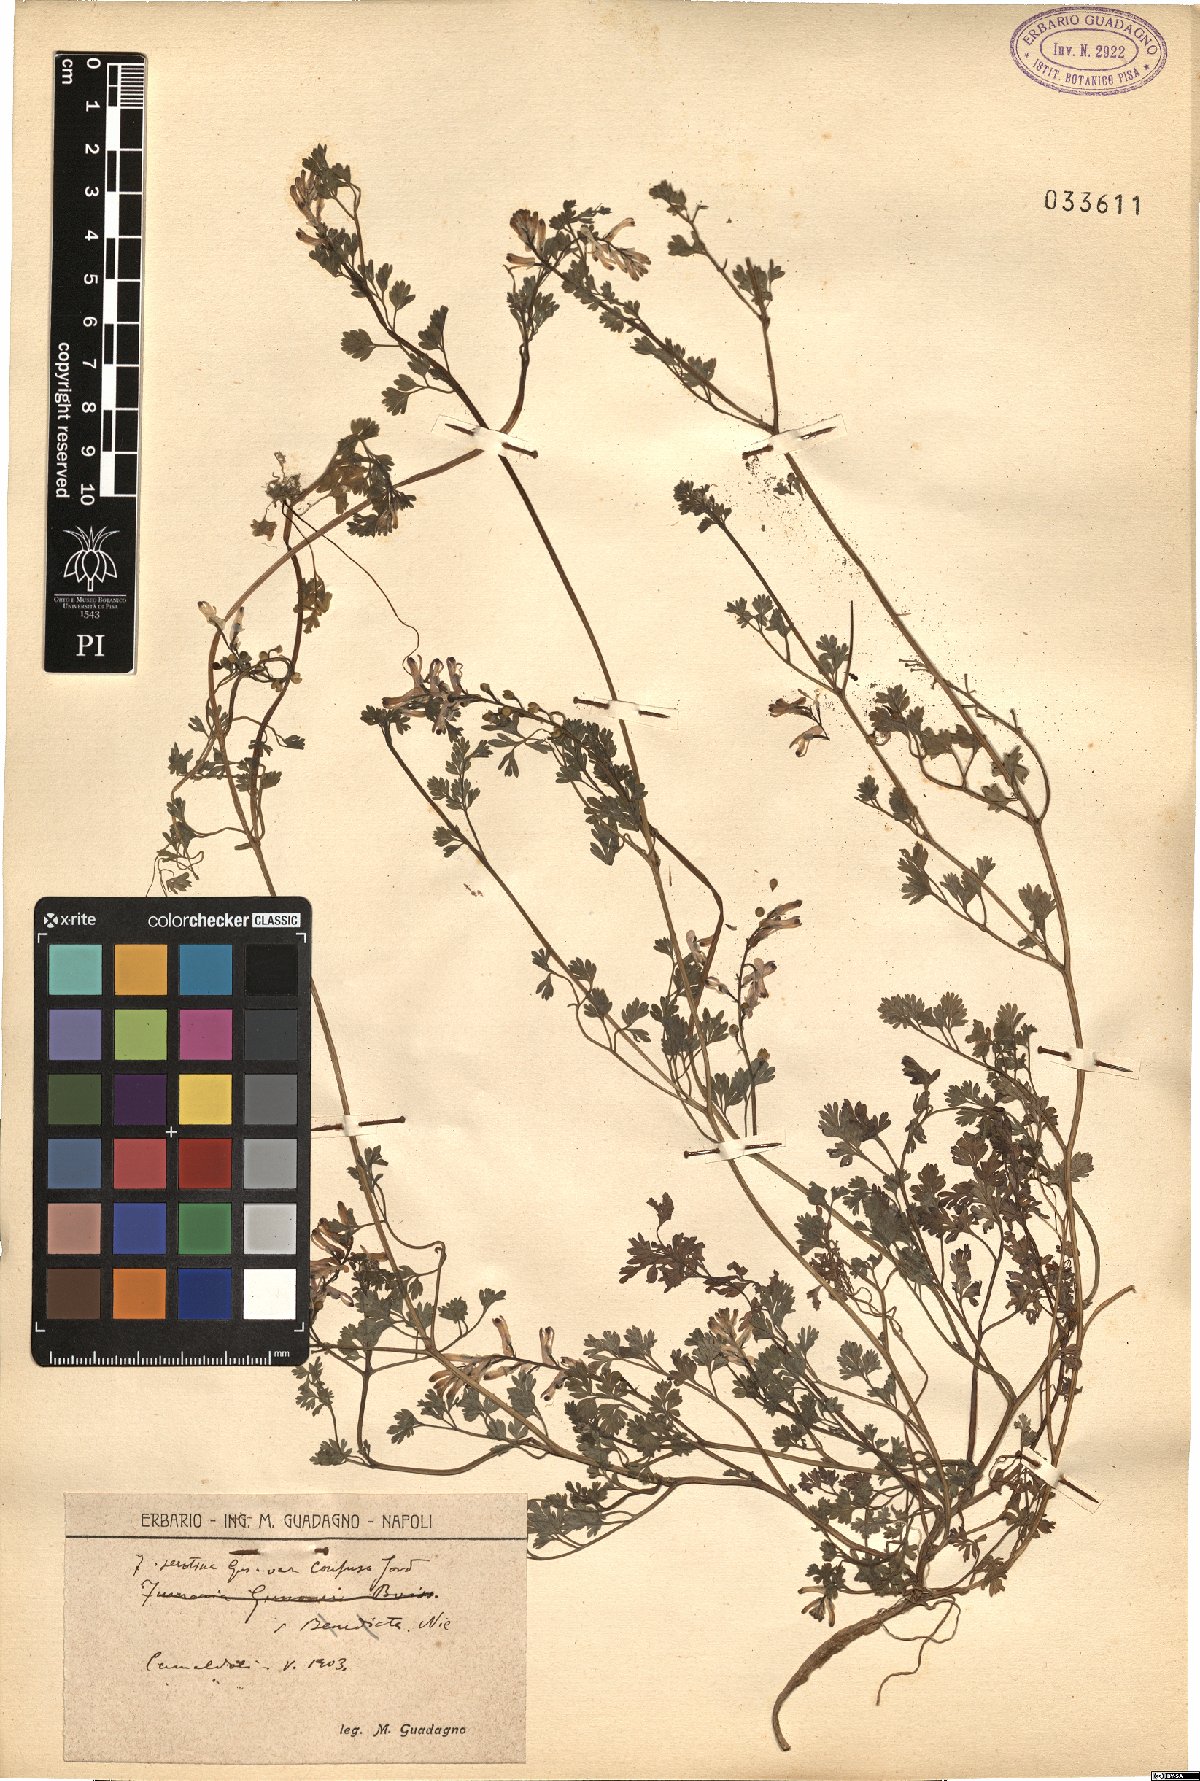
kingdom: Plantae
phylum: Tracheophyta
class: Magnoliopsida
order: Ranunculales
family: Papaveraceae
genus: Fumaria
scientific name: Fumaria bastardii
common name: Tall ramping-fumitory
